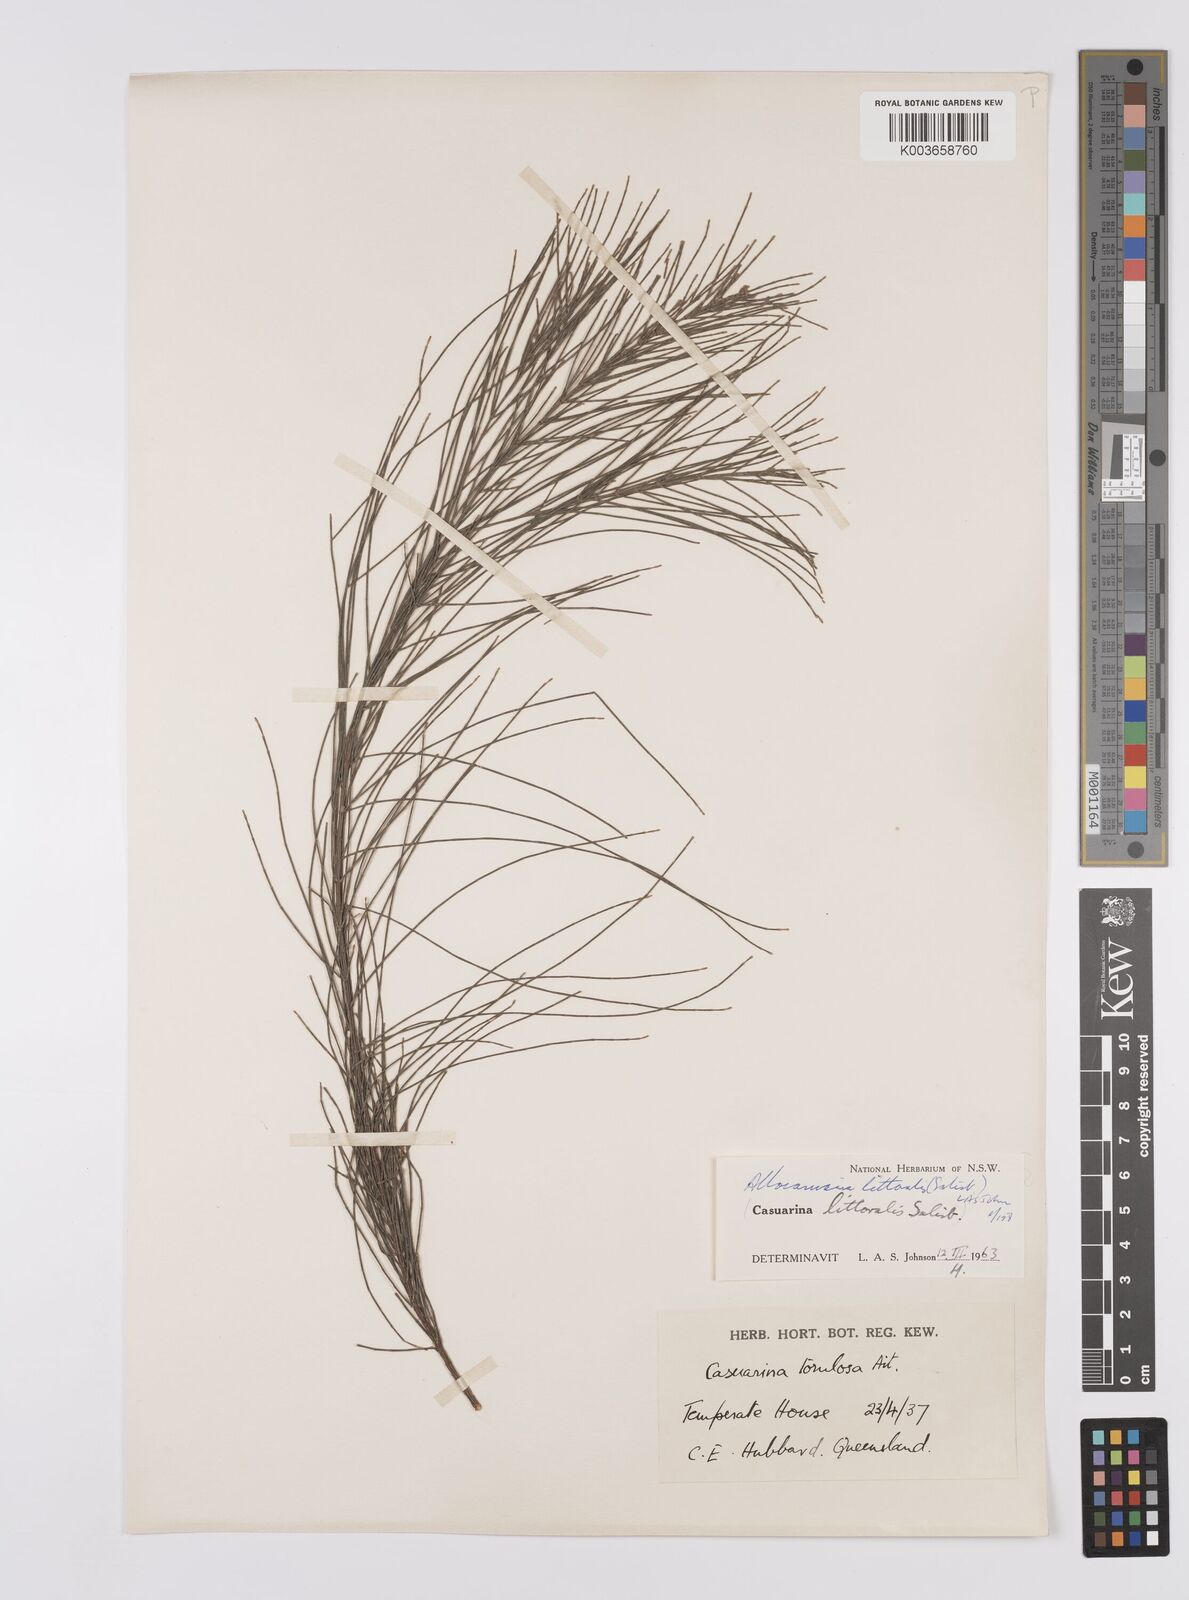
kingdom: Plantae
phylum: Tracheophyta
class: Magnoliopsida
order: Fagales
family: Casuarinaceae
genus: Allocasuarina
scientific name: Allocasuarina littoralis
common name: Black she-oak
